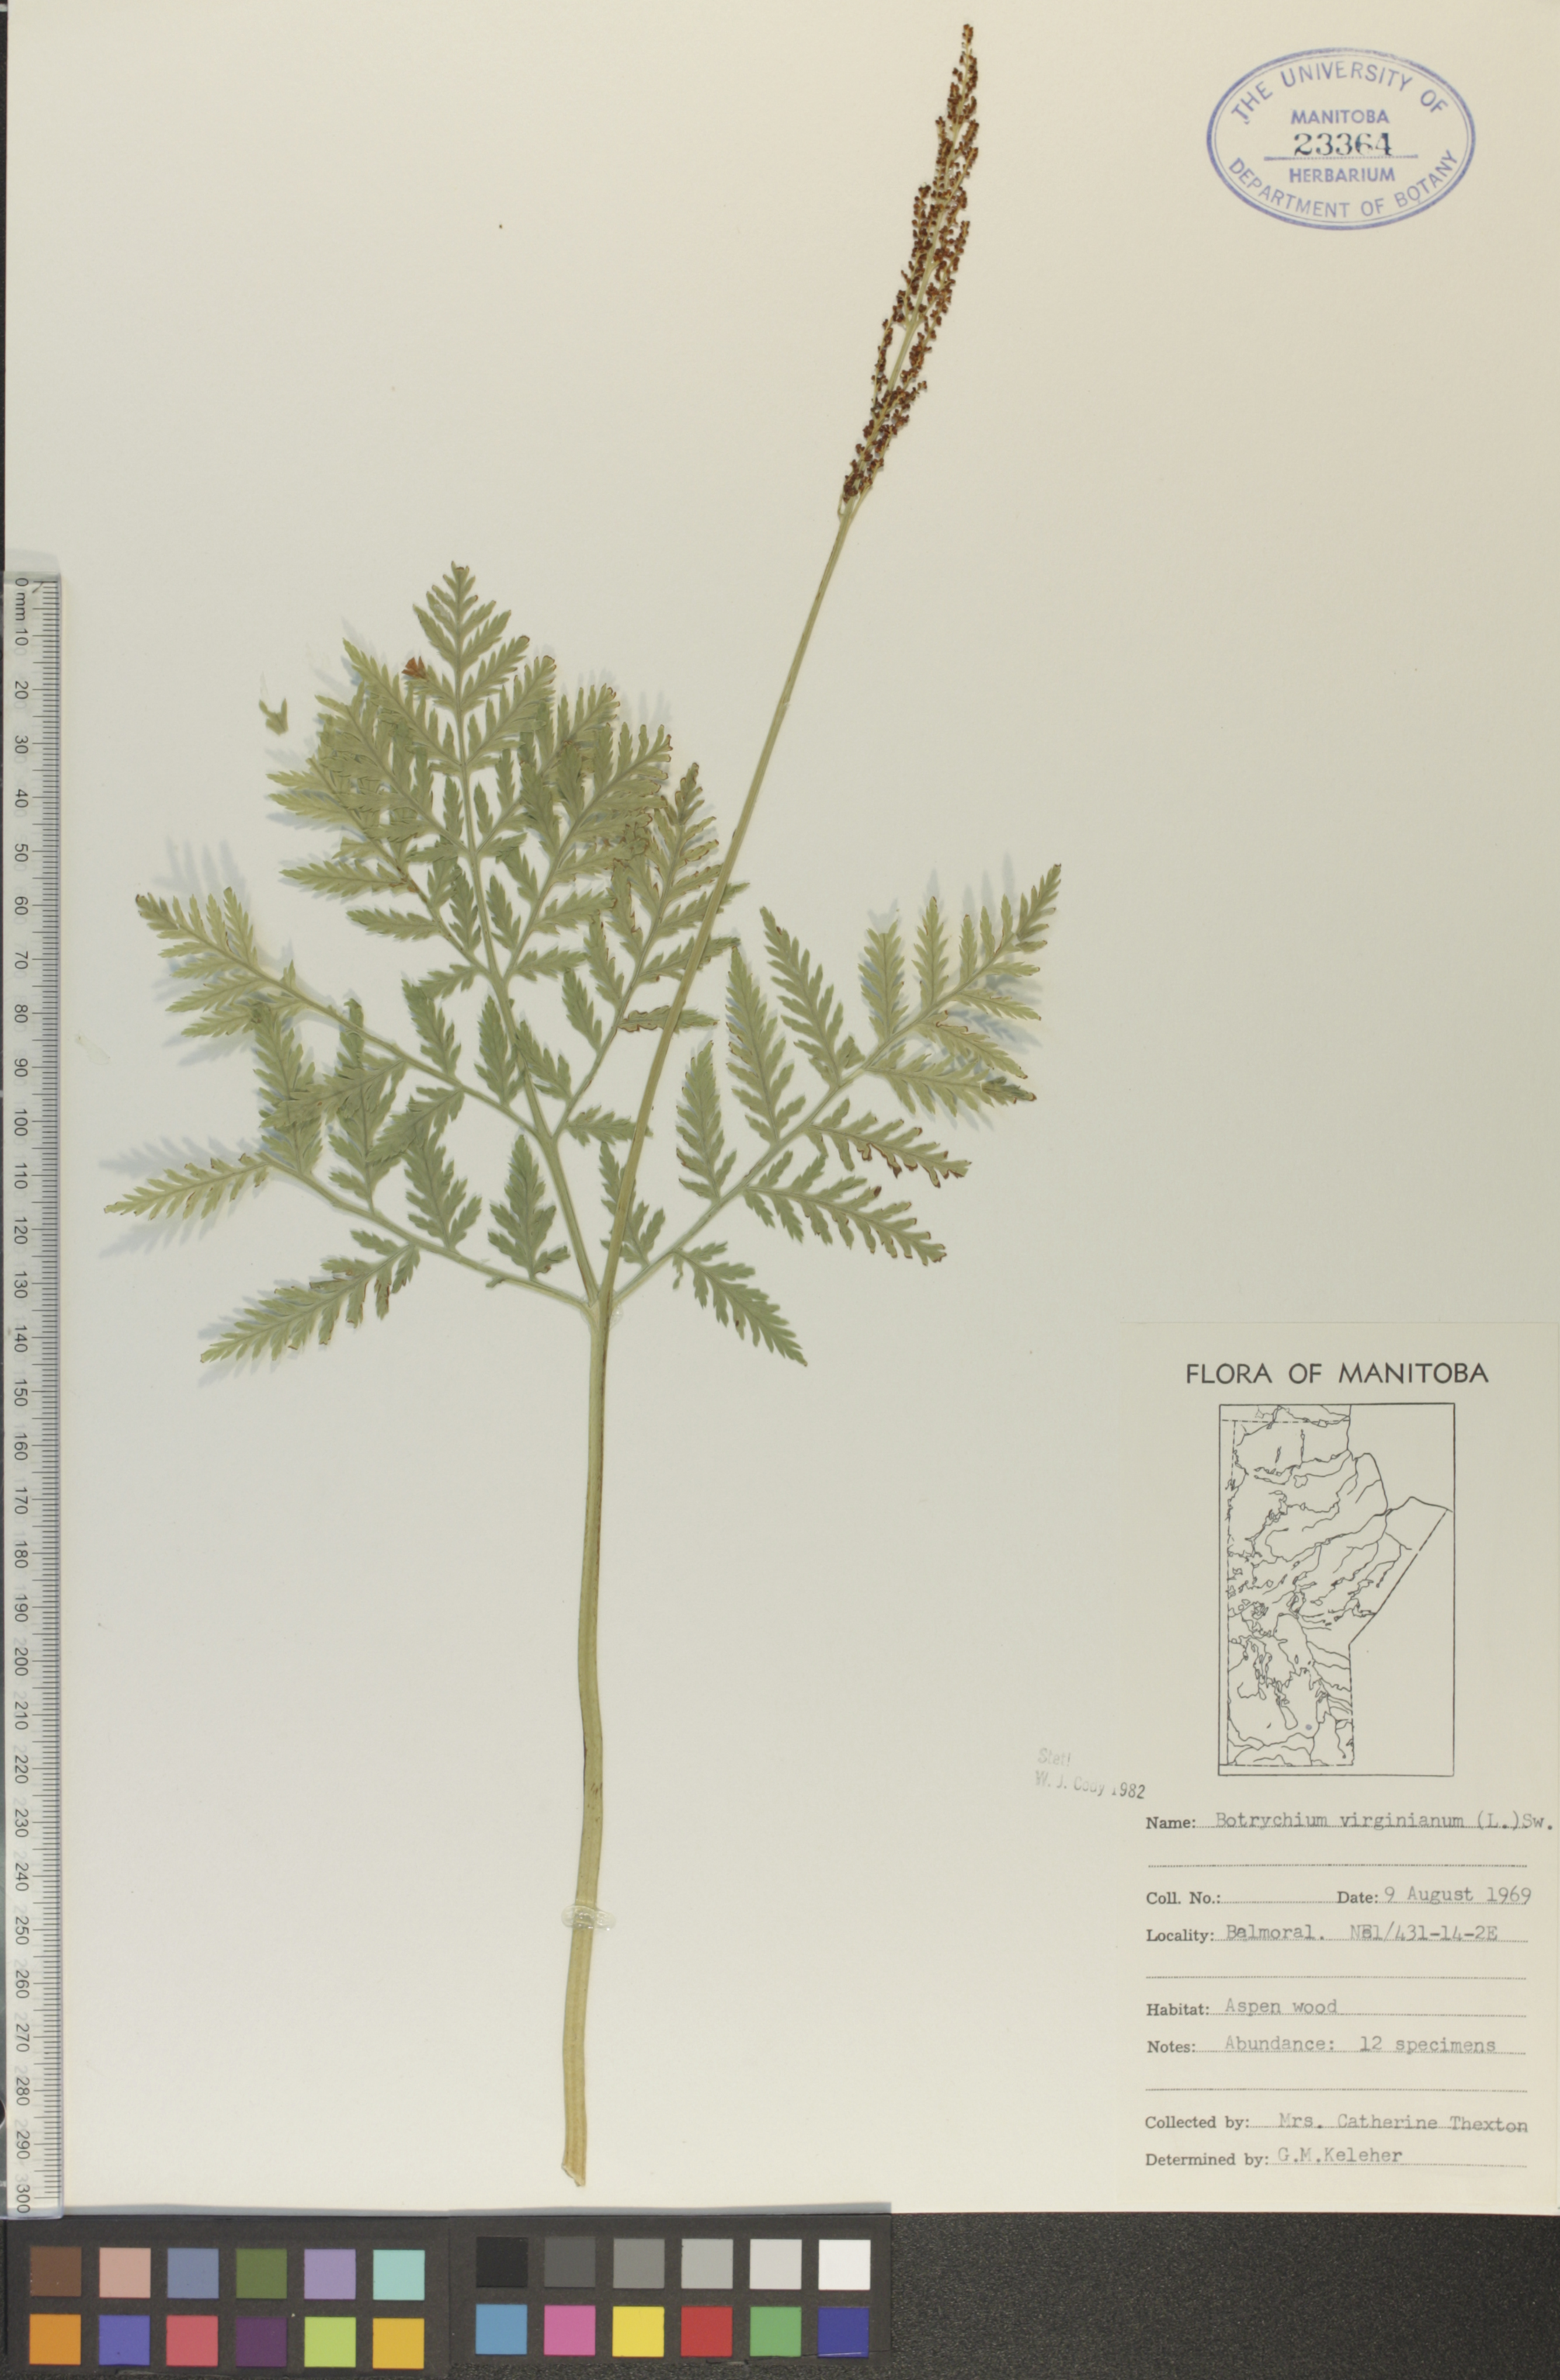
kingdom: Plantae
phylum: Tracheophyta
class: Polypodiopsida
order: Ophioglossales
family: Ophioglossaceae
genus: Botrypus
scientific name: Botrypus virginianus
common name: Common grapefern
